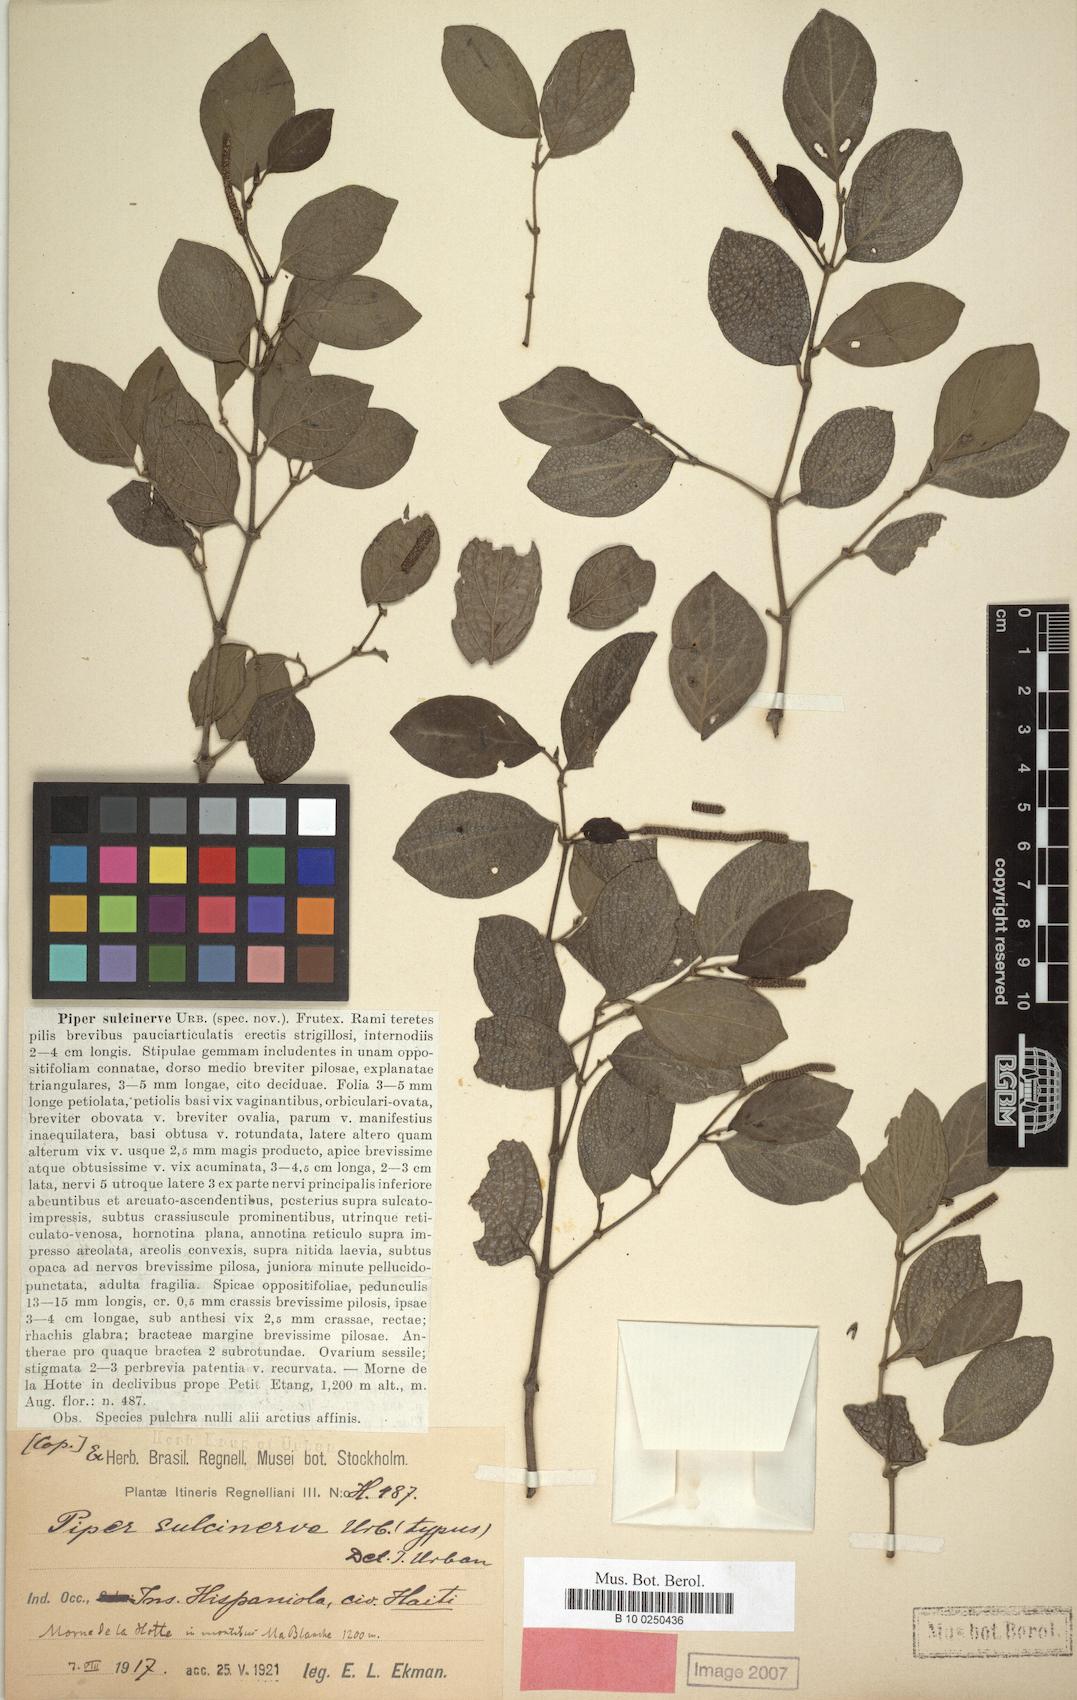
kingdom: Plantae
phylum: Tracheophyta
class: Magnoliopsida
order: Piperales
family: Piperaceae
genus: Piper
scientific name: Piper rugosum
